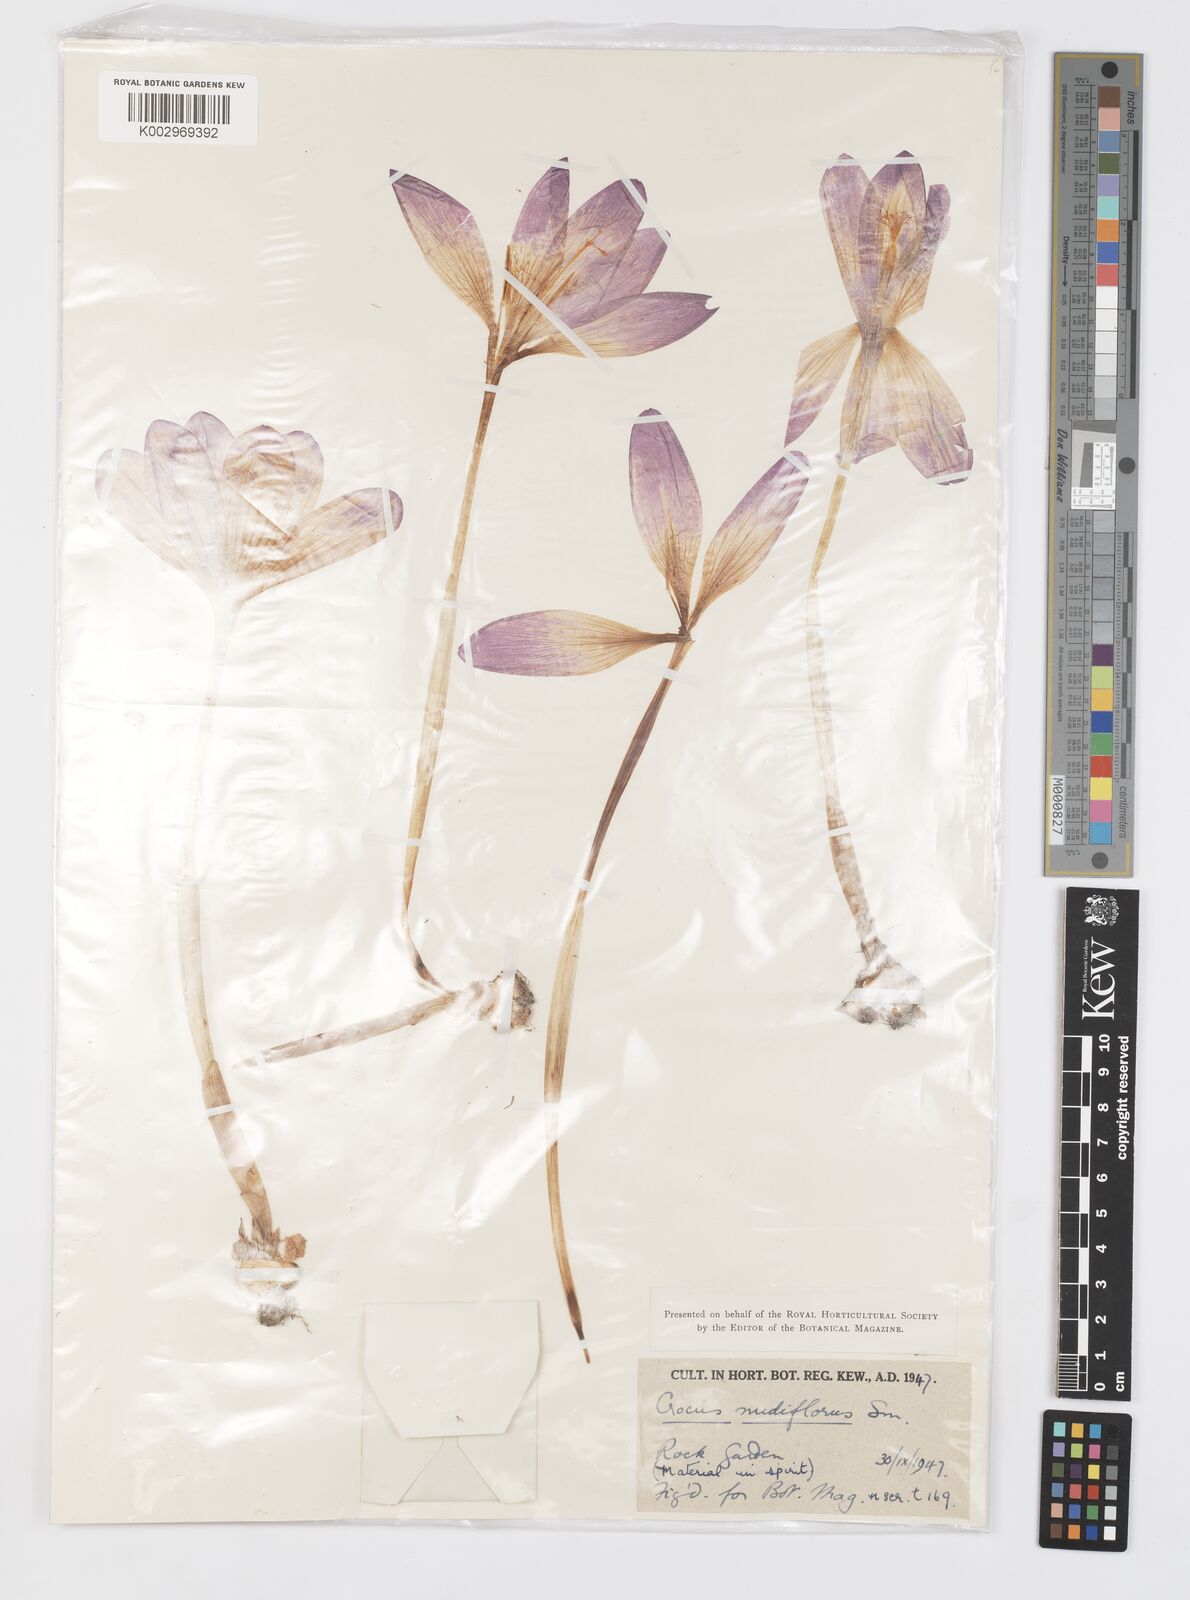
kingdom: Plantae
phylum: Tracheophyta
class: Liliopsida
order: Asparagales
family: Iridaceae
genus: Crocus
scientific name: Crocus nudiflorus
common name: Autumn crocus
